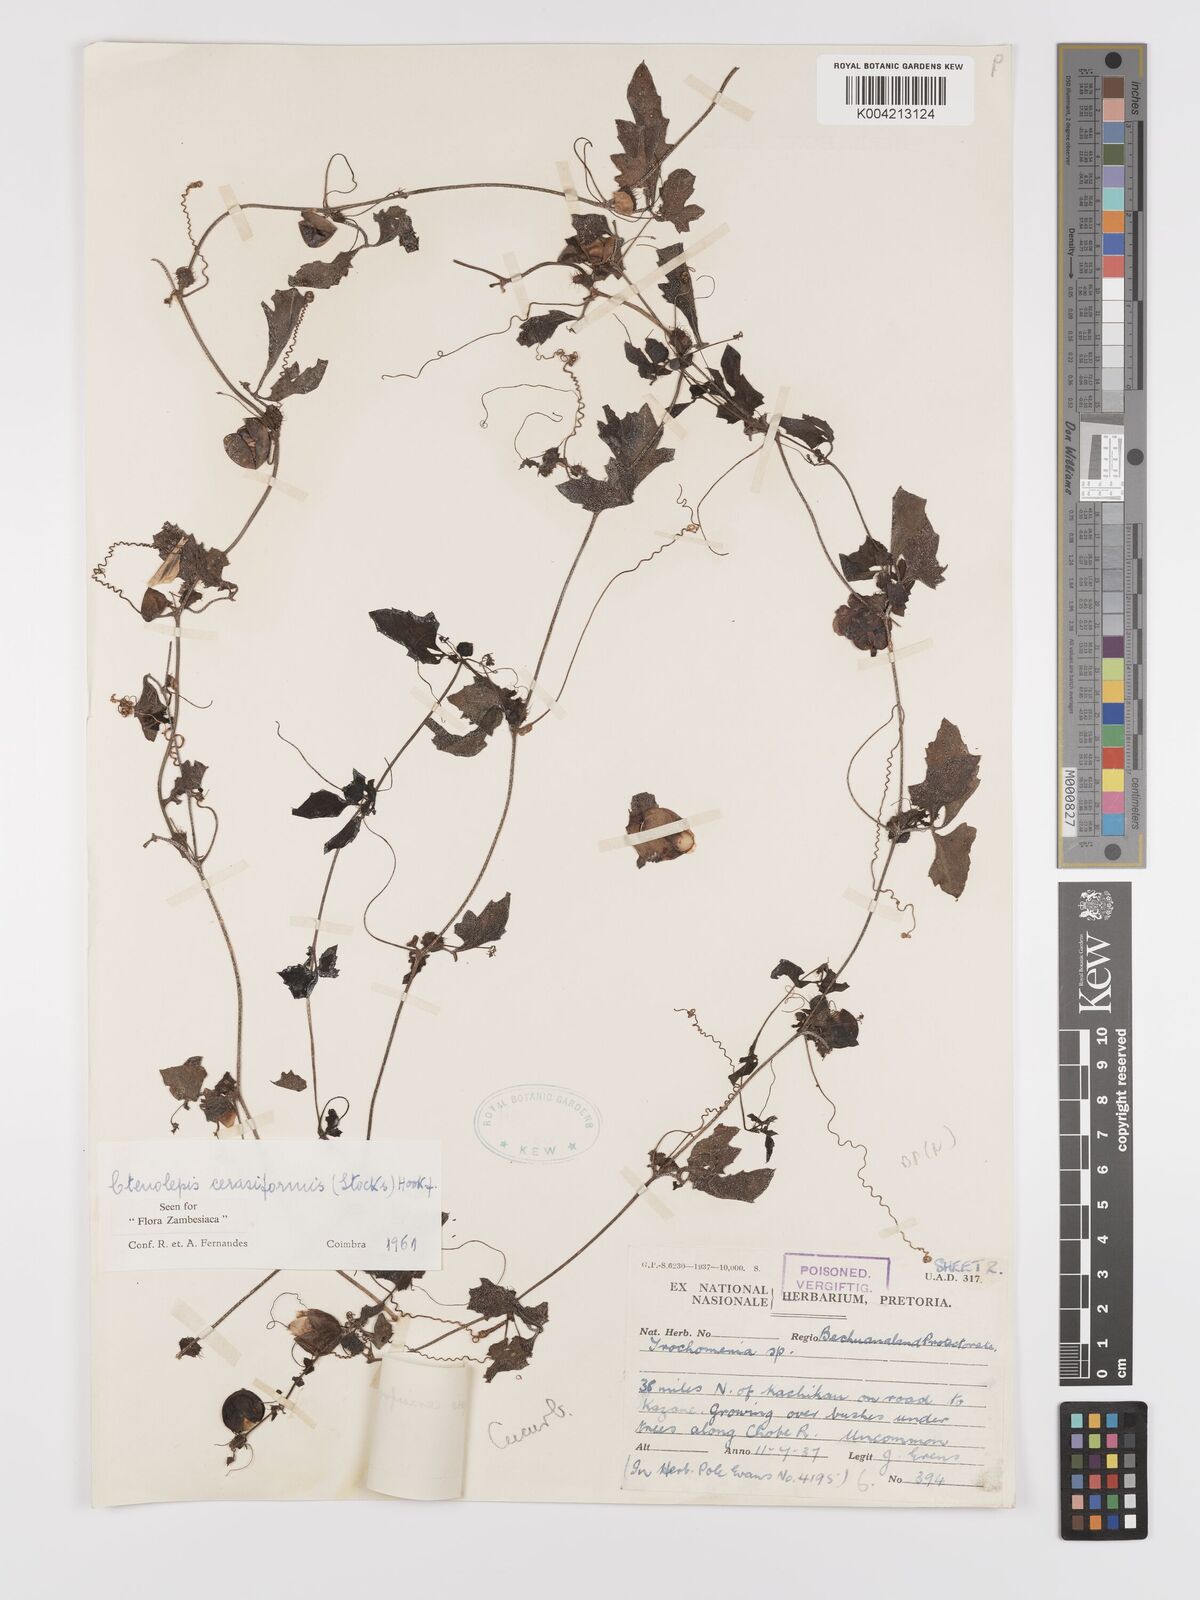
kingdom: Plantae
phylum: Tracheophyta
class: Magnoliopsida
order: Cucurbitales
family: Cucurbitaceae
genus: Blastania
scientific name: Blastania cerasiformis
